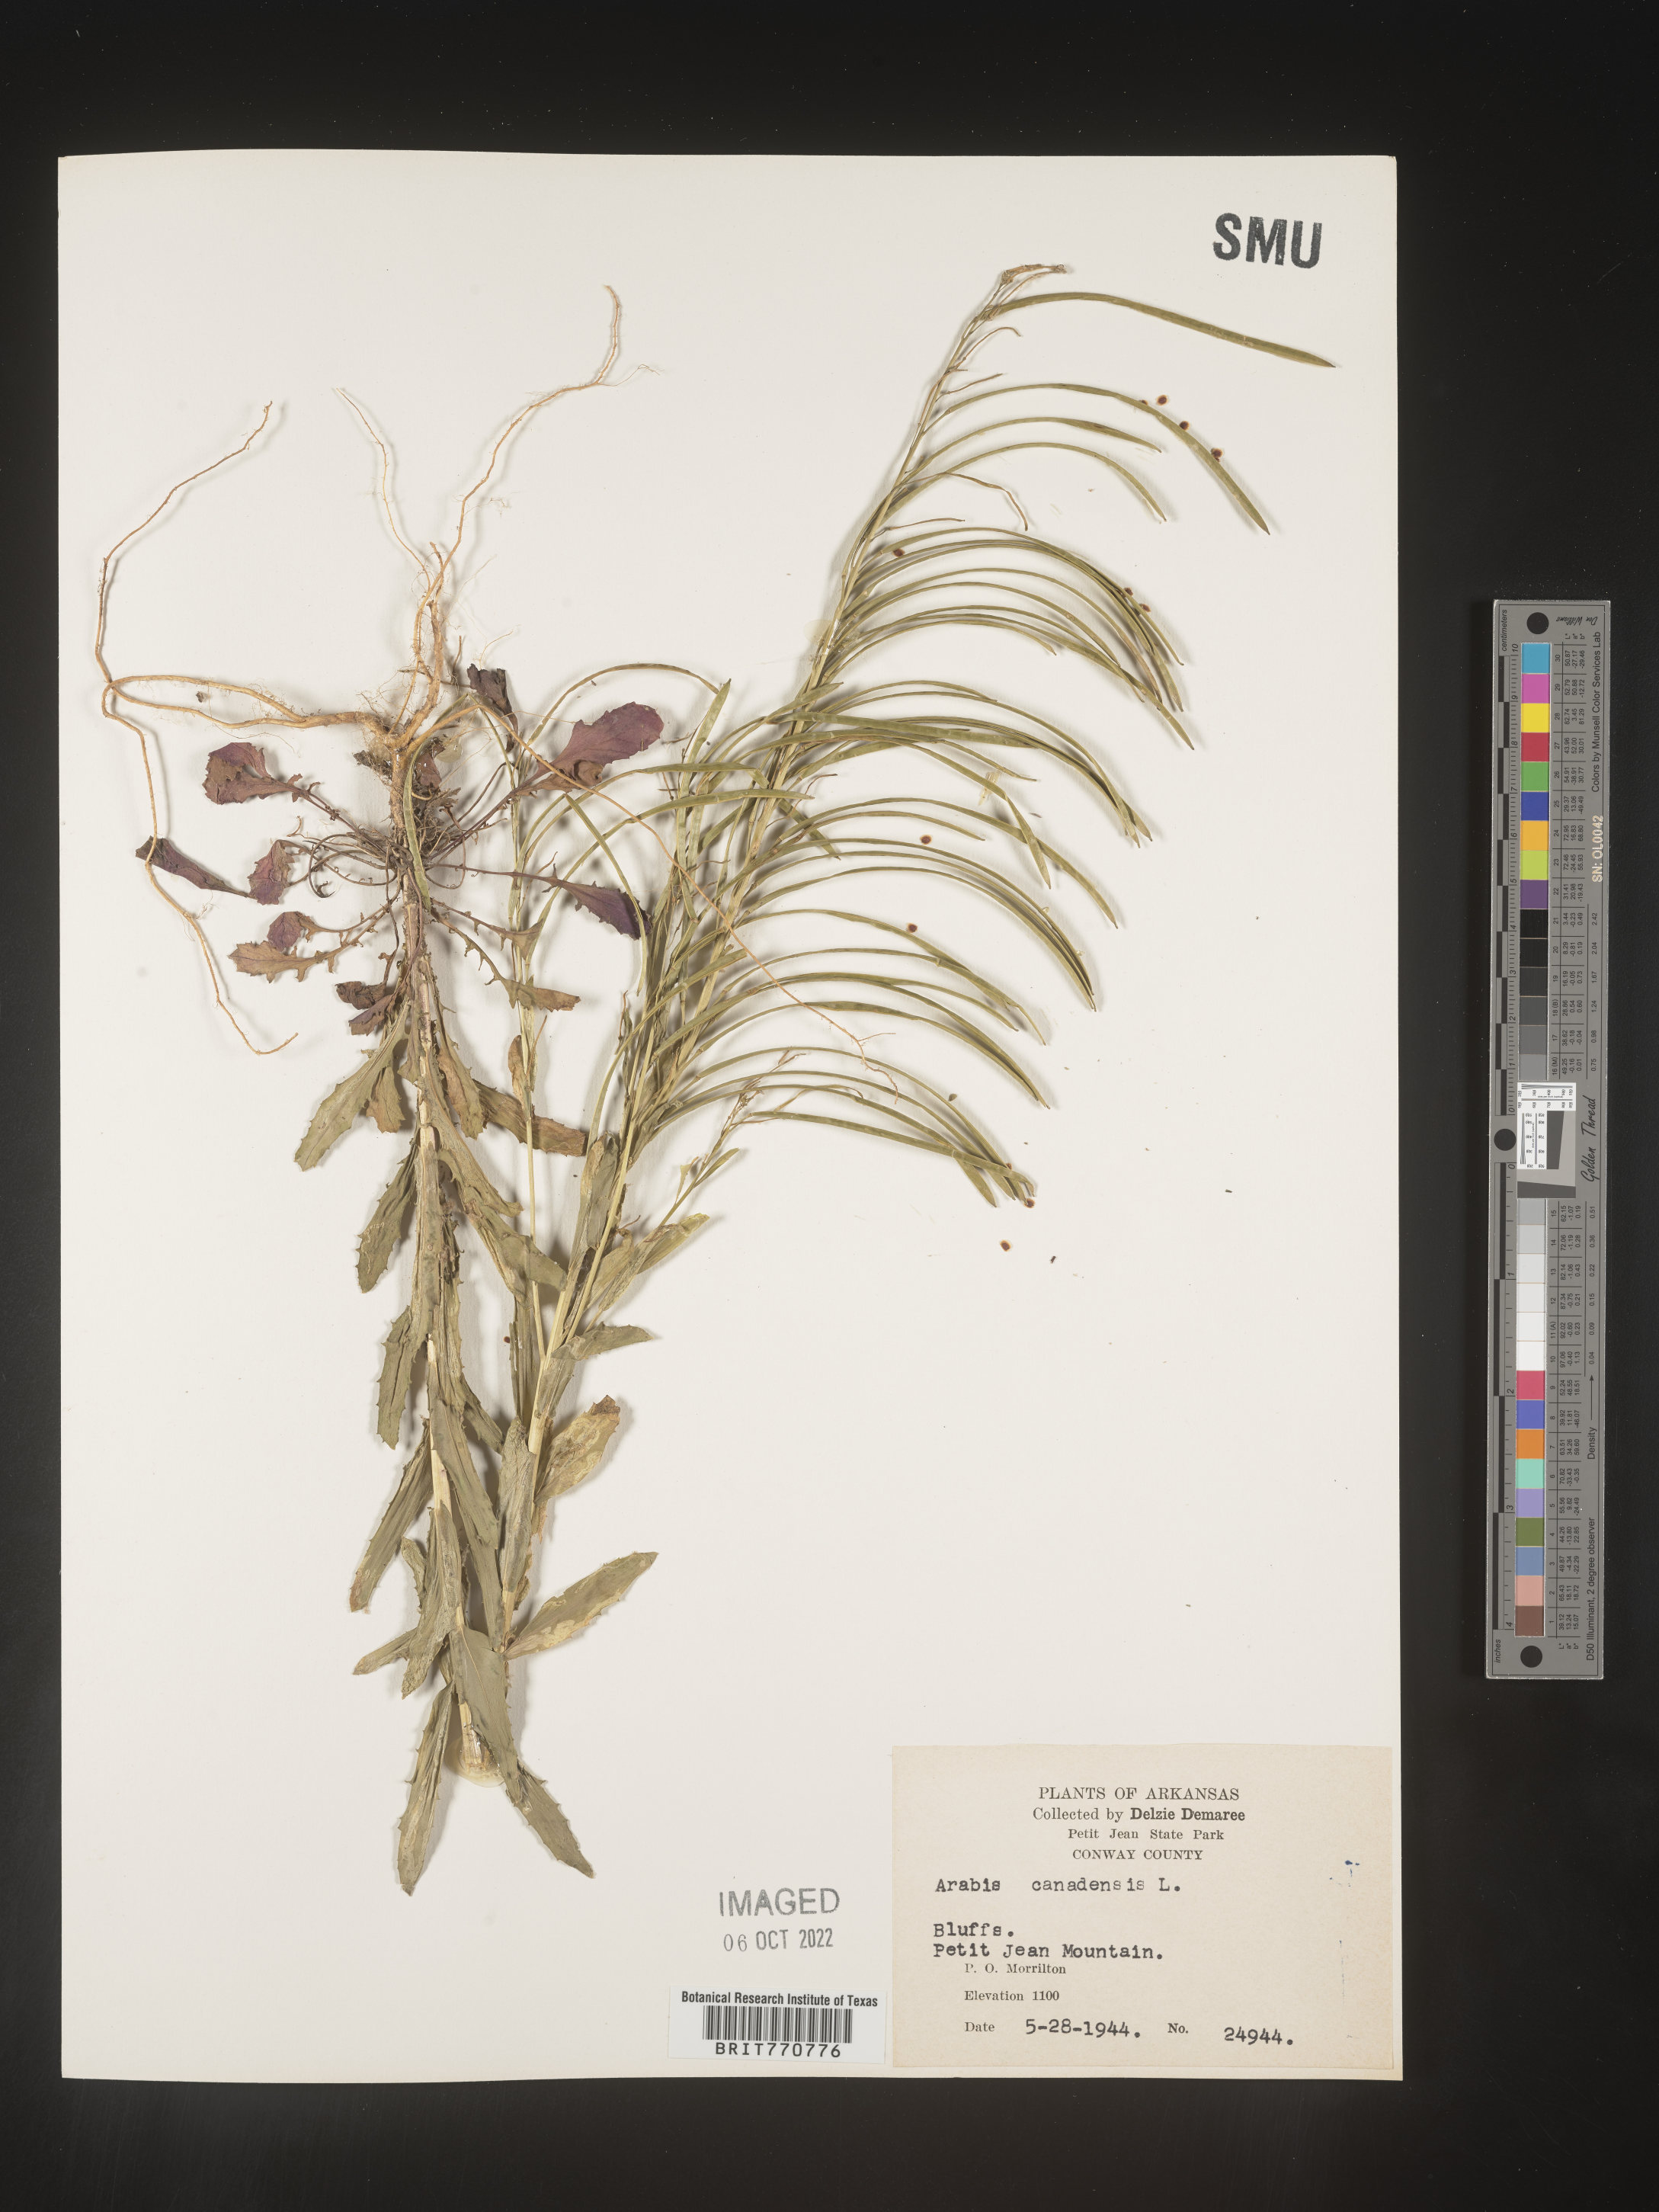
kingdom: Plantae
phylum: Tracheophyta
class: Magnoliopsida
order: Brassicales
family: Brassicaceae
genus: Borodinia
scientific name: Borodinia canadensis
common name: Sicklepod
